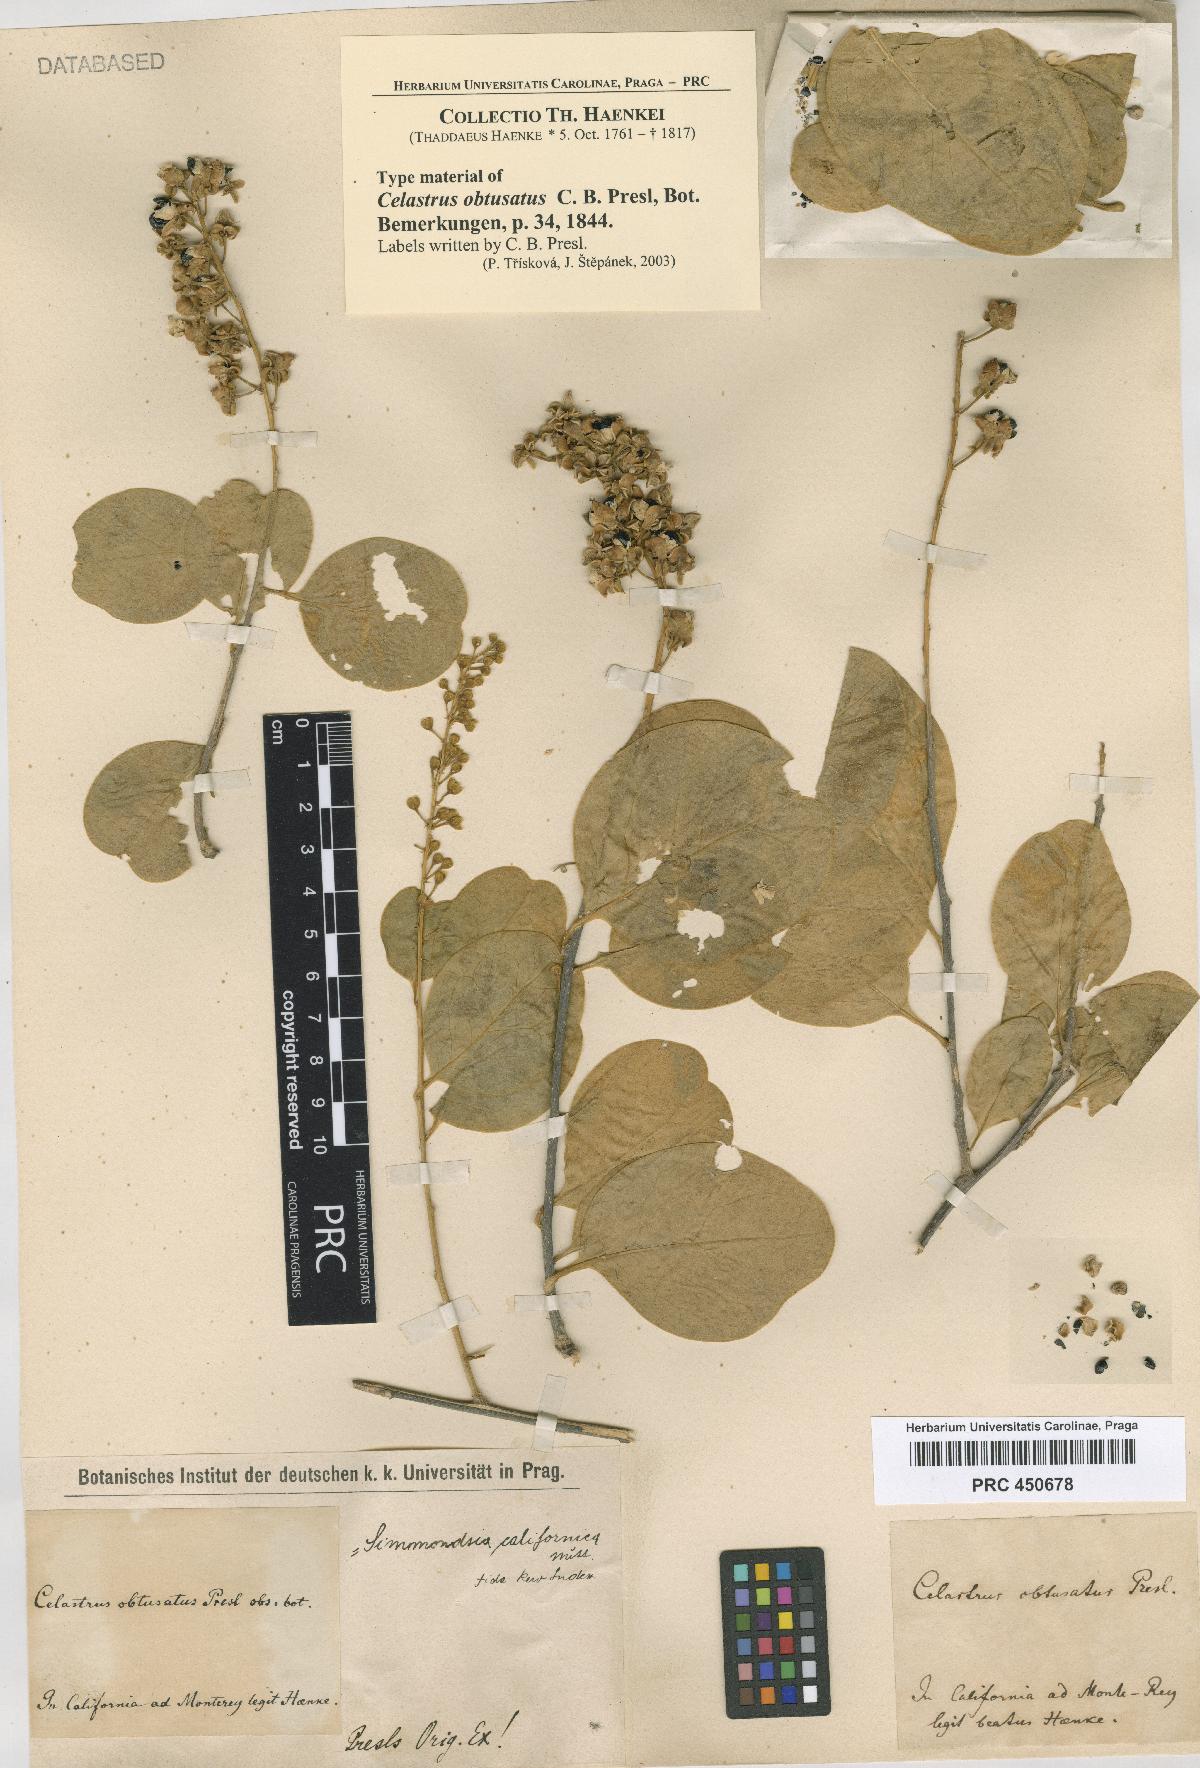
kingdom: Plantae
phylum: Tracheophyta
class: Magnoliopsida
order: Caryophyllales
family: Simmondsiaceae
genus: Simmondsia
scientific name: Simmondsia chinensis
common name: Jojoba
